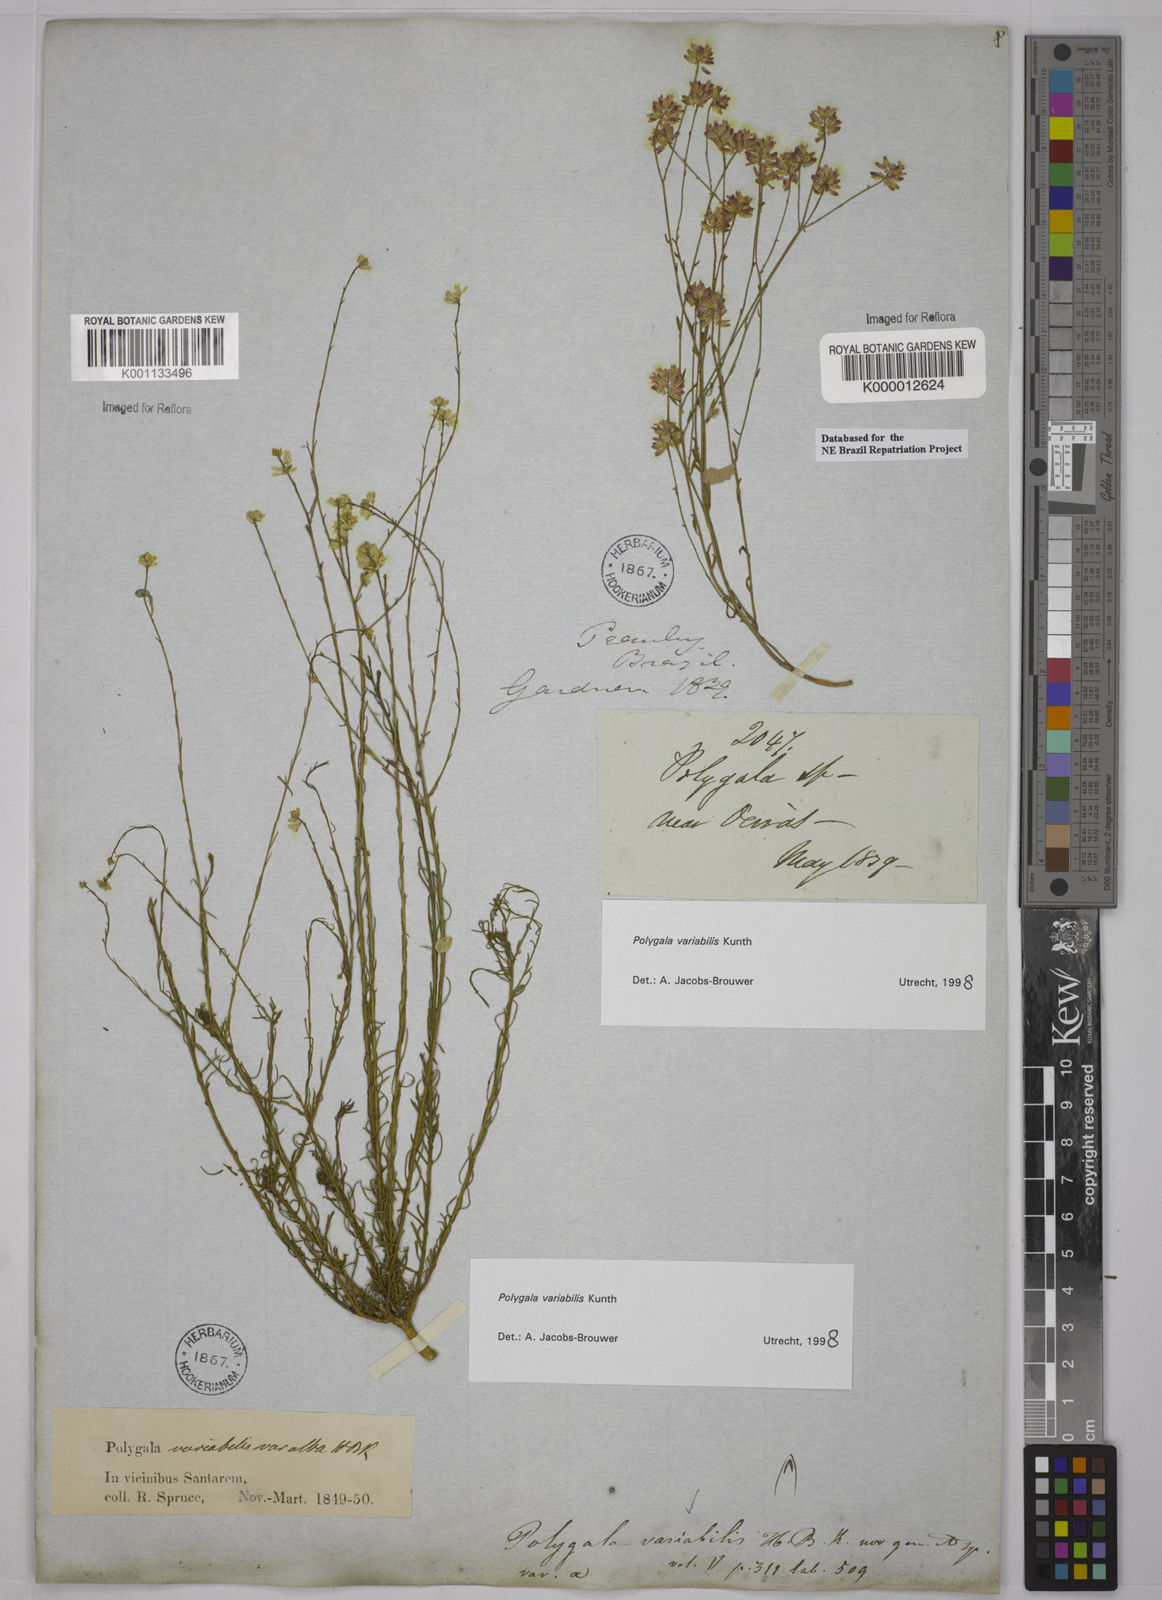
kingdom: Plantae
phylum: Tracheophyta
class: Magnoliopsida
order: Fabales
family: Polygalaceae
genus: Polygala
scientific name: Polygala trichosperma
